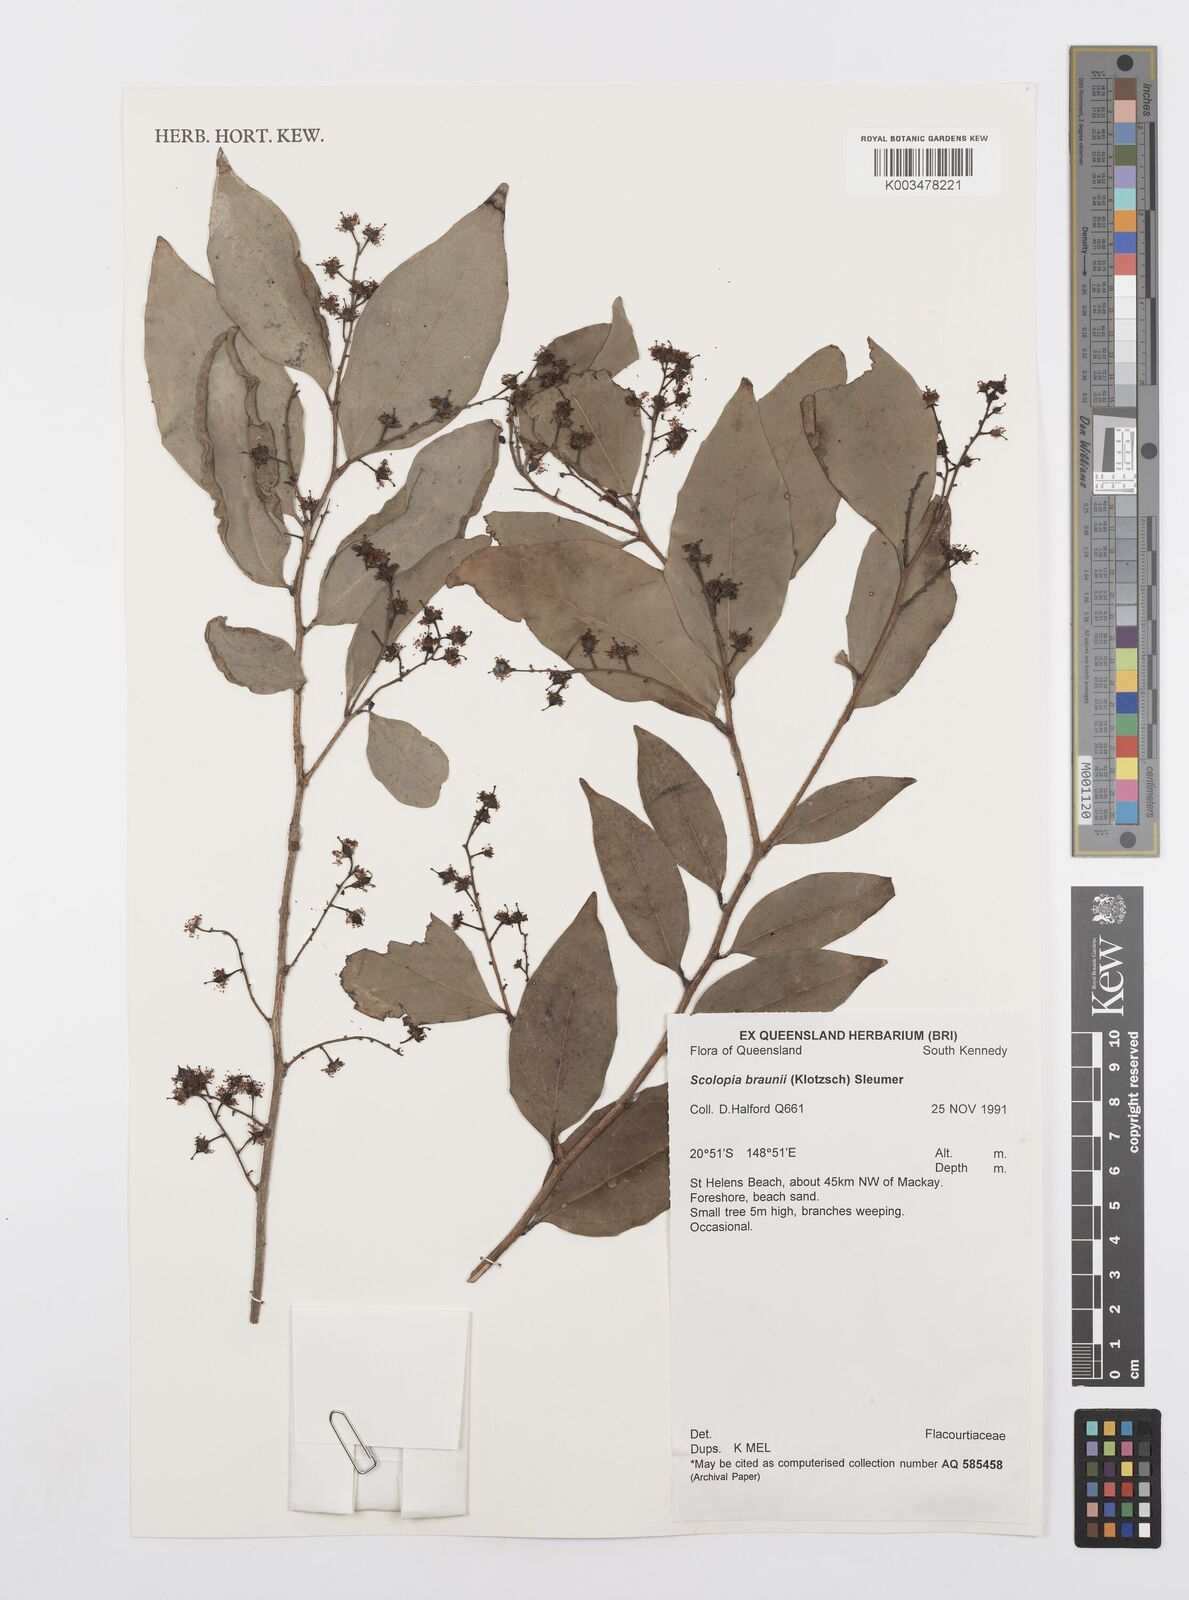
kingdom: Plantae
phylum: Tracheophyta
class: Magnoliopsida
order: Malpighiales
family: Salicaceae
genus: Scolopia
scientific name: Scolopia braunii
